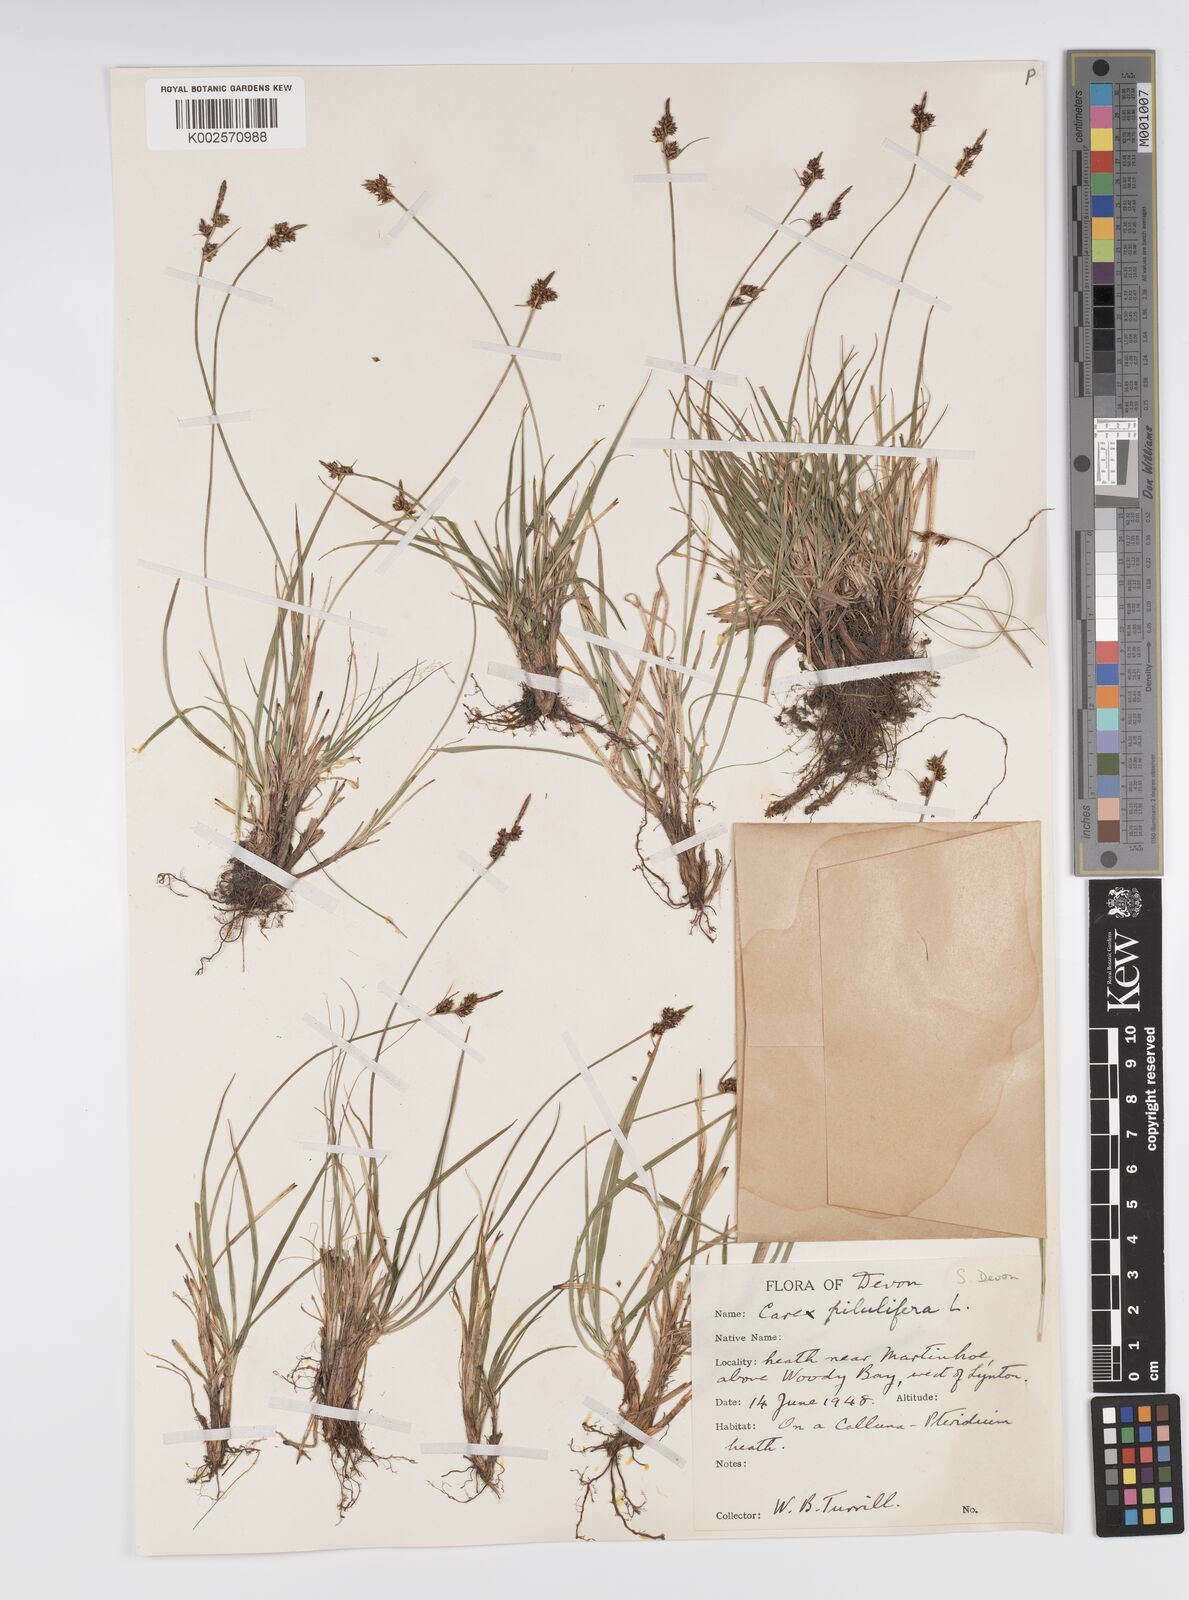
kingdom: Plantae
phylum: Tracheophyta
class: Liliopsida
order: Poales
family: Cyperaceae
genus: Carex
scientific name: Carex praecox
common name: Early sedge
